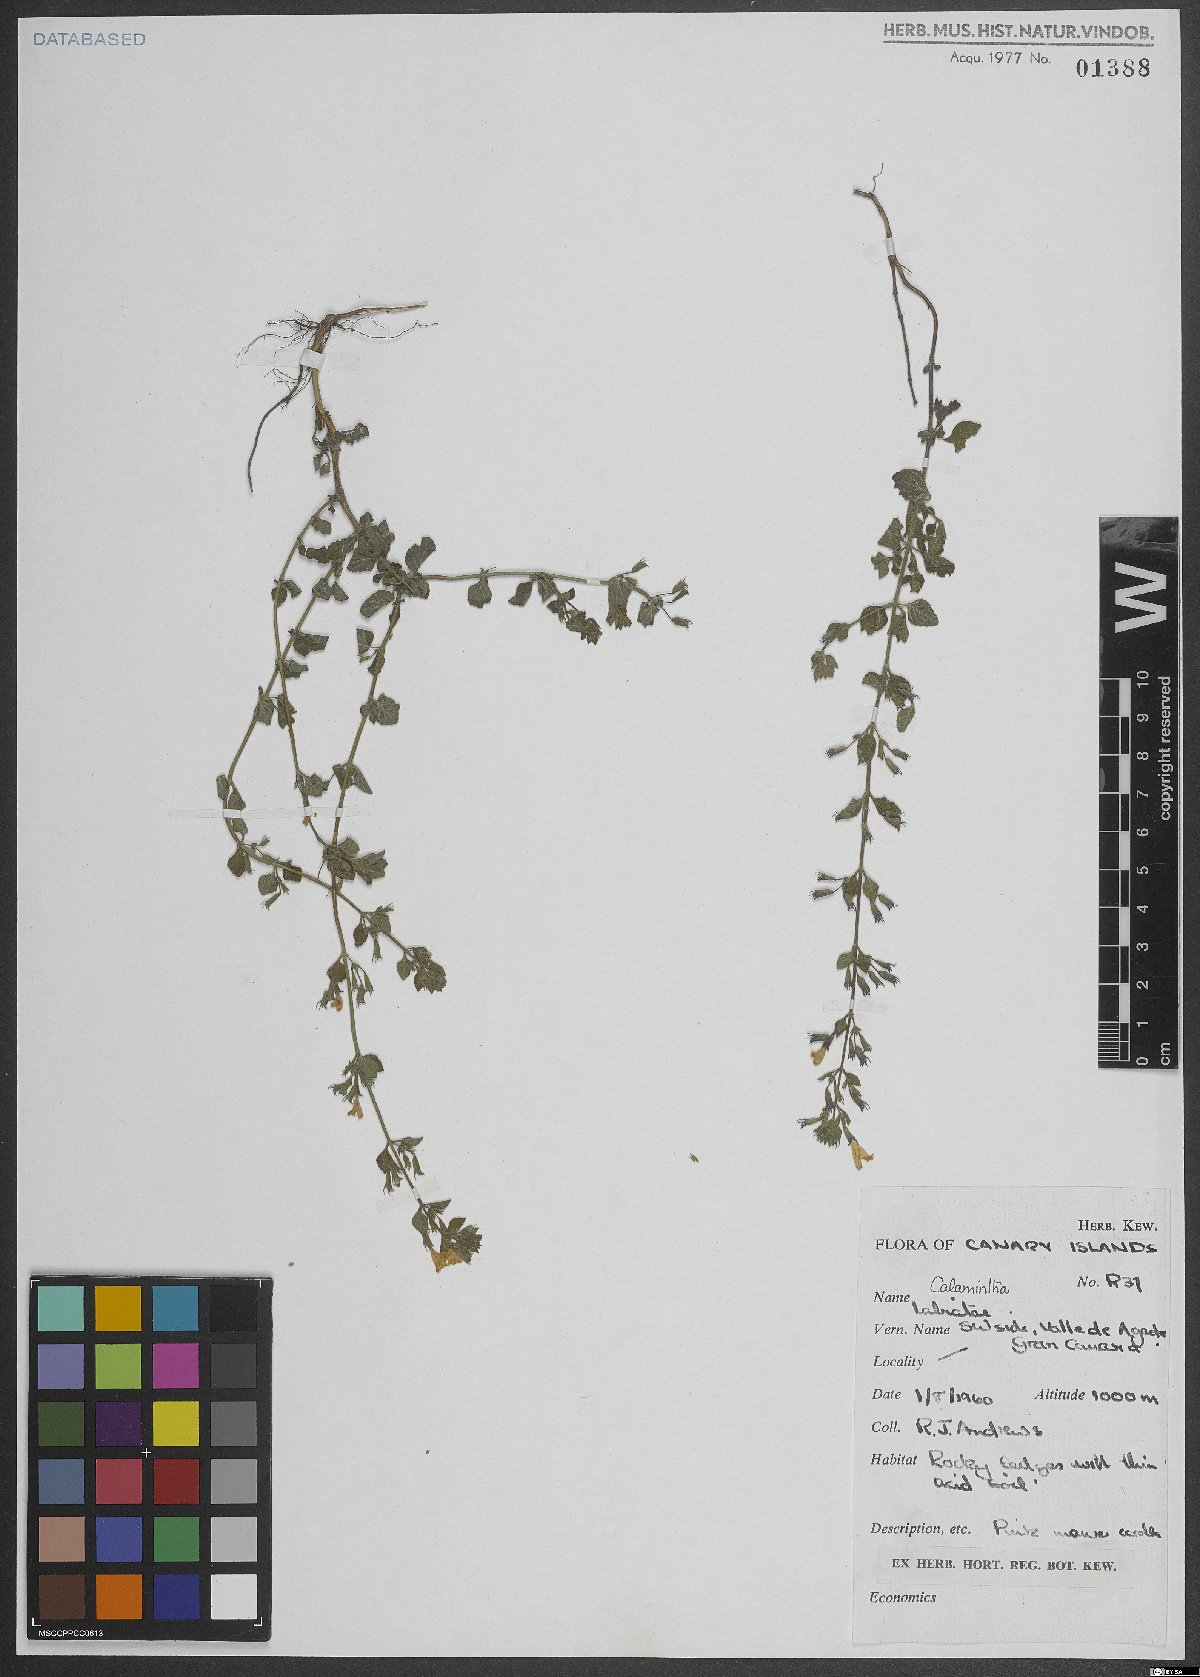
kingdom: Plantae
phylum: Tracheophyta
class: Magnoliopsida
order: Lamiales
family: Lamiaceae
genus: Calamintha
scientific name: Calamintha
